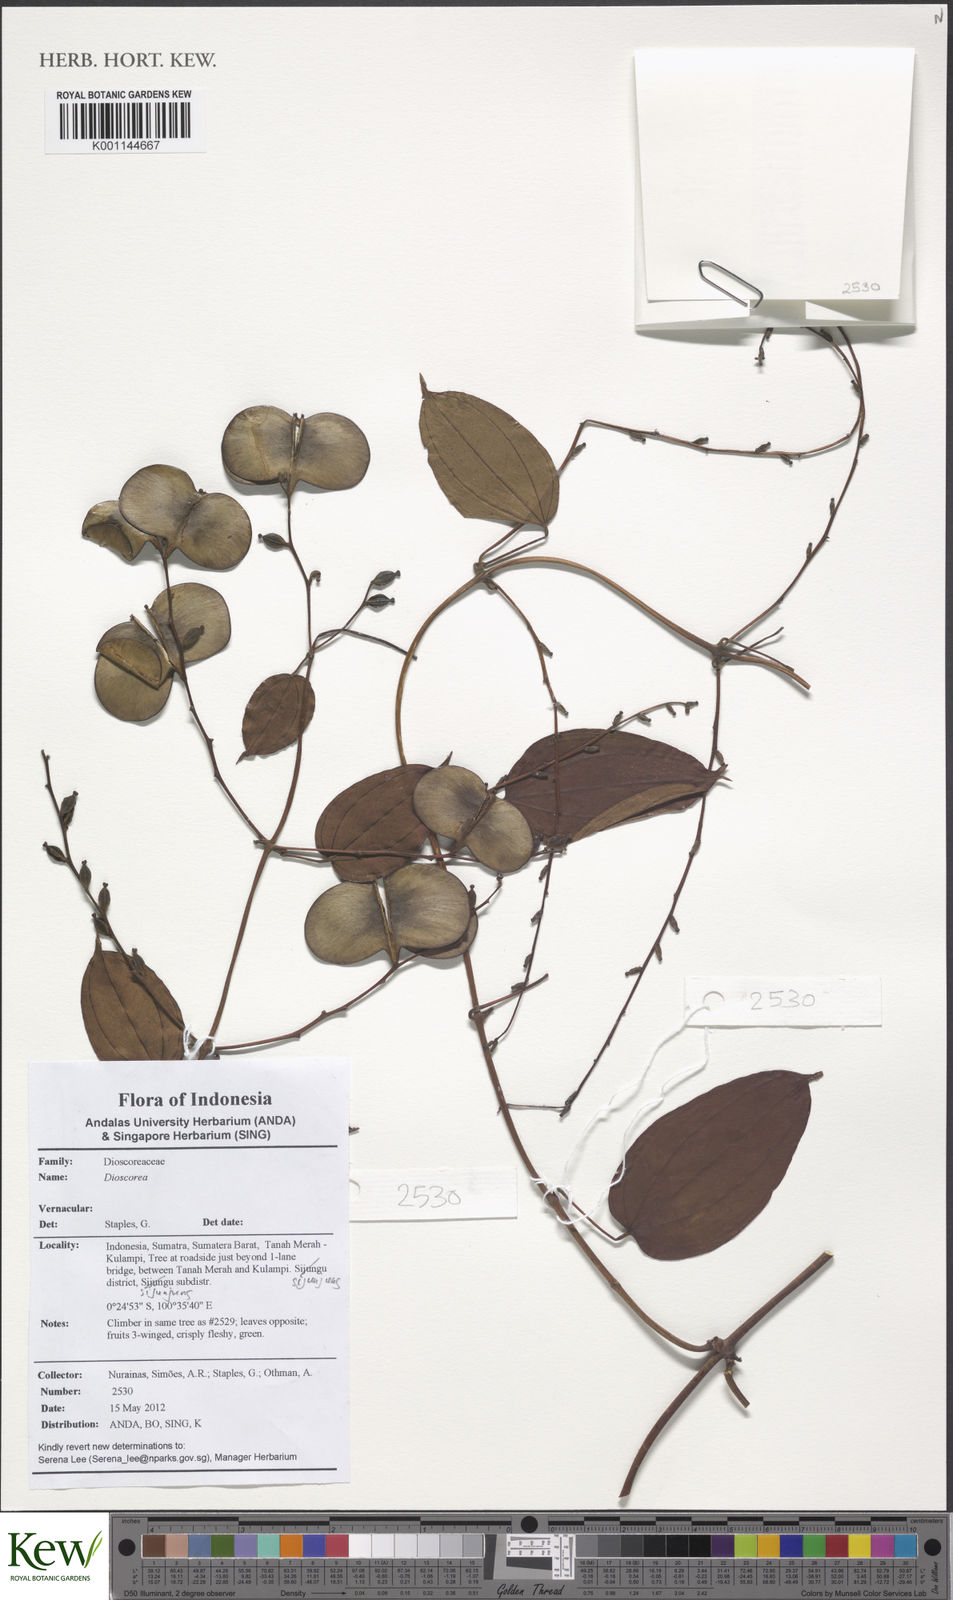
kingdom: Plantae
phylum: Tracheophyta
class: Liliopsida
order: Dioscoreales
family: Dioscoreaceae
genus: Dioscorea
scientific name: Dioscorea
